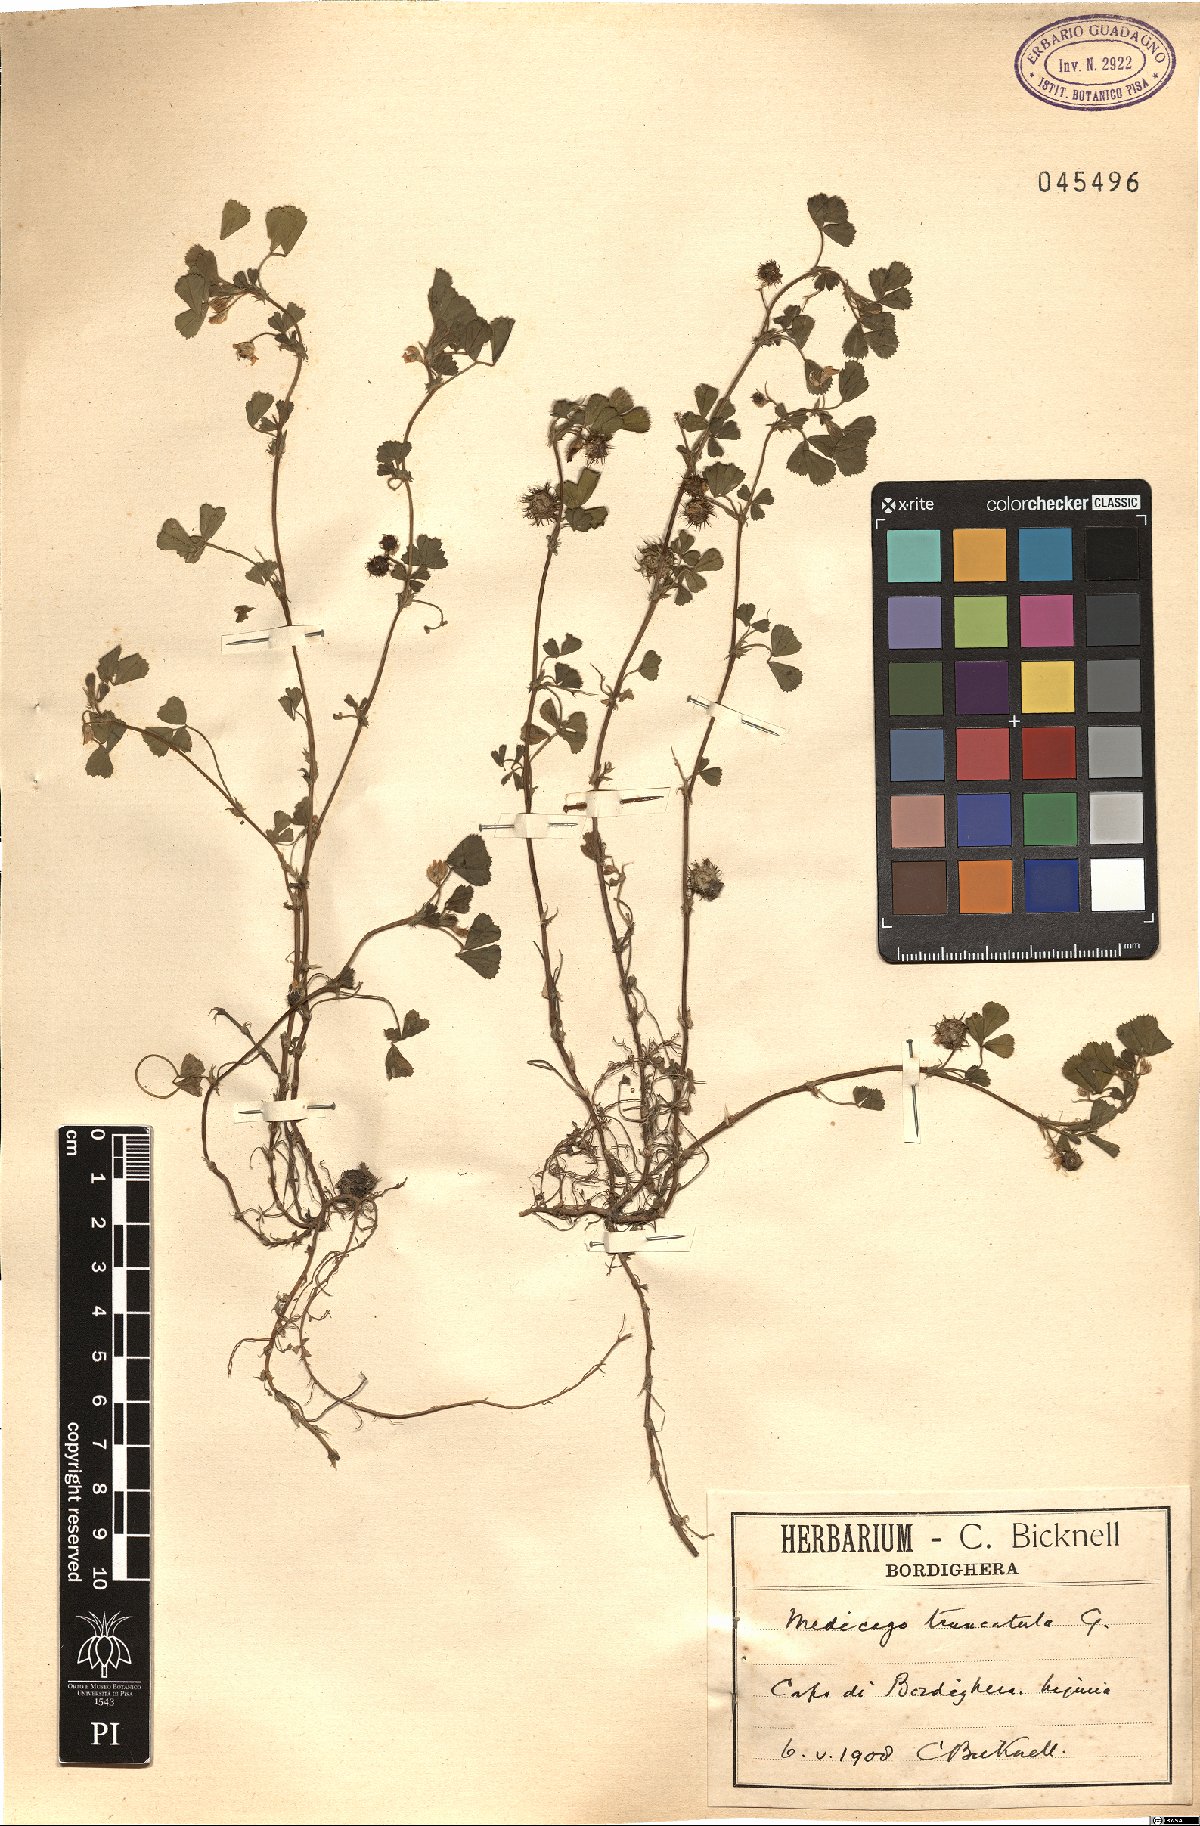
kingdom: Plantae
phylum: Tracheophyta
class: Magnoliopsida
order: Fabales
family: Fabaceae
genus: Medicago
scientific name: Medicago truncatula
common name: Strong-spined medick
